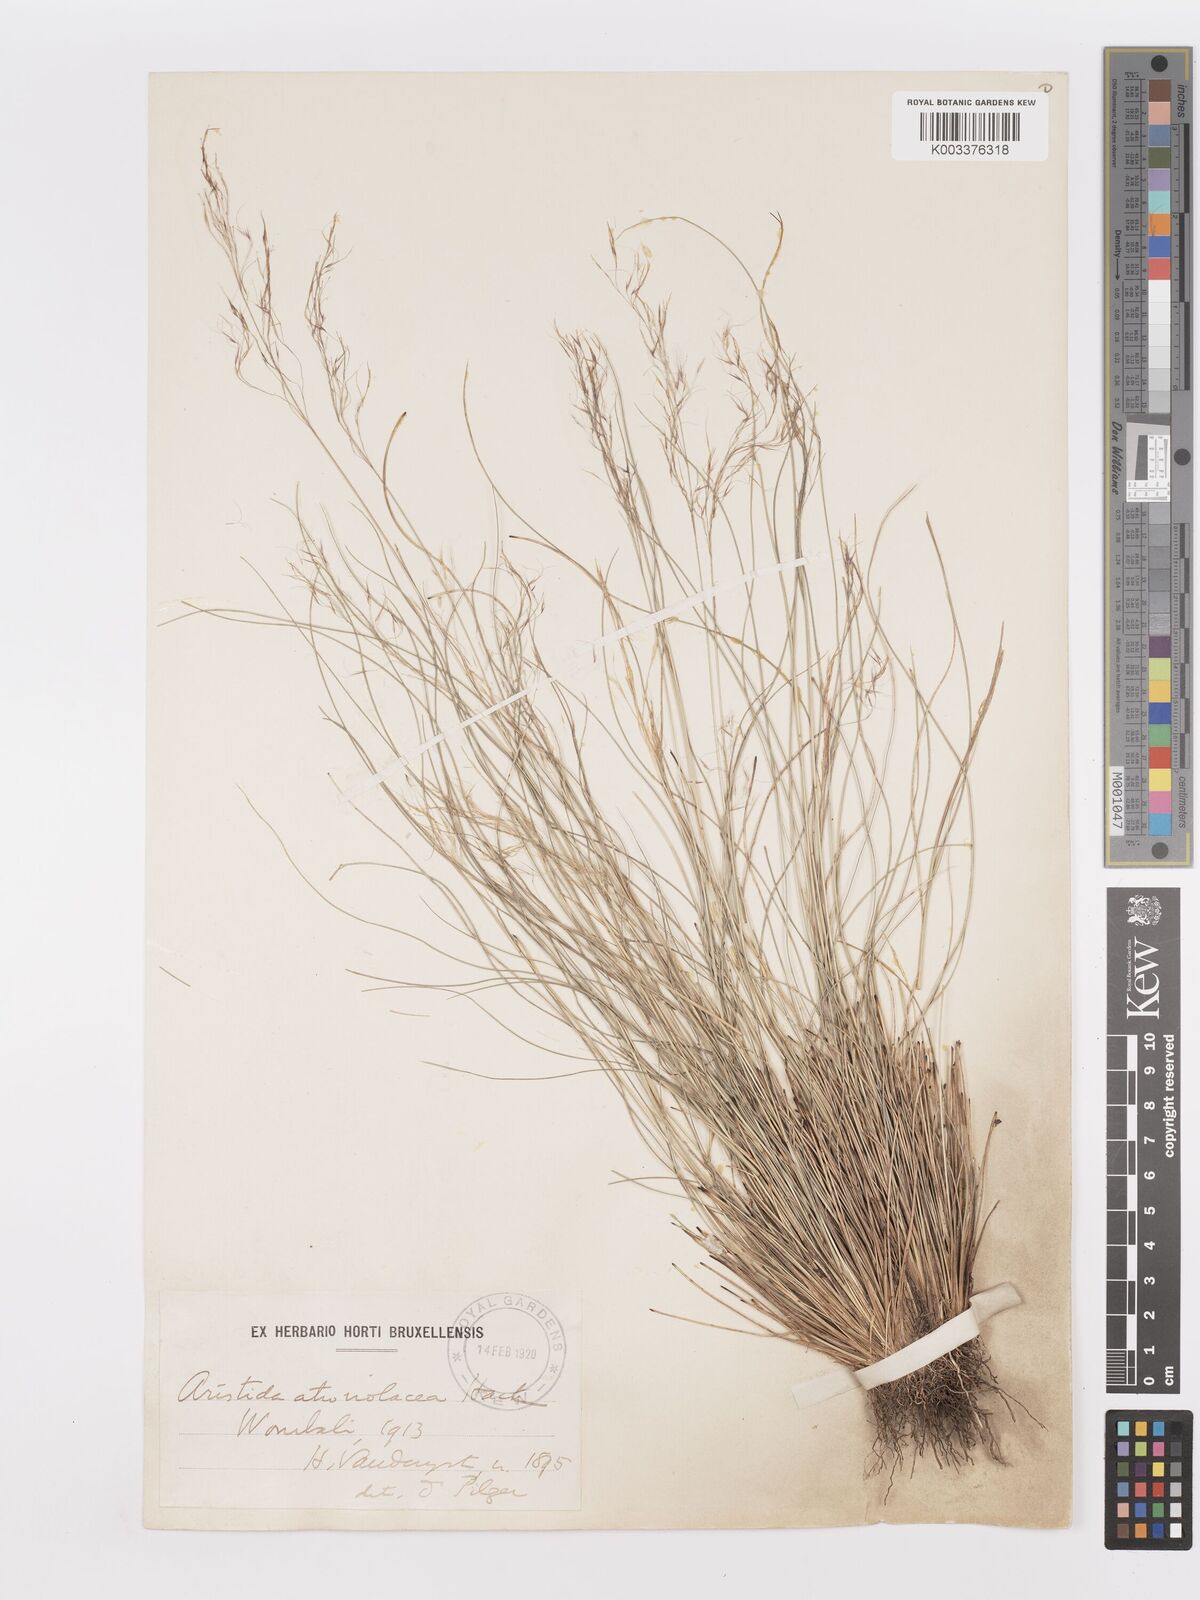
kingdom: Plantae
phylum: Tracheophyta
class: Liliopsida
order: Poales
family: Poaceae
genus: Aristida
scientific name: Aristida recta
